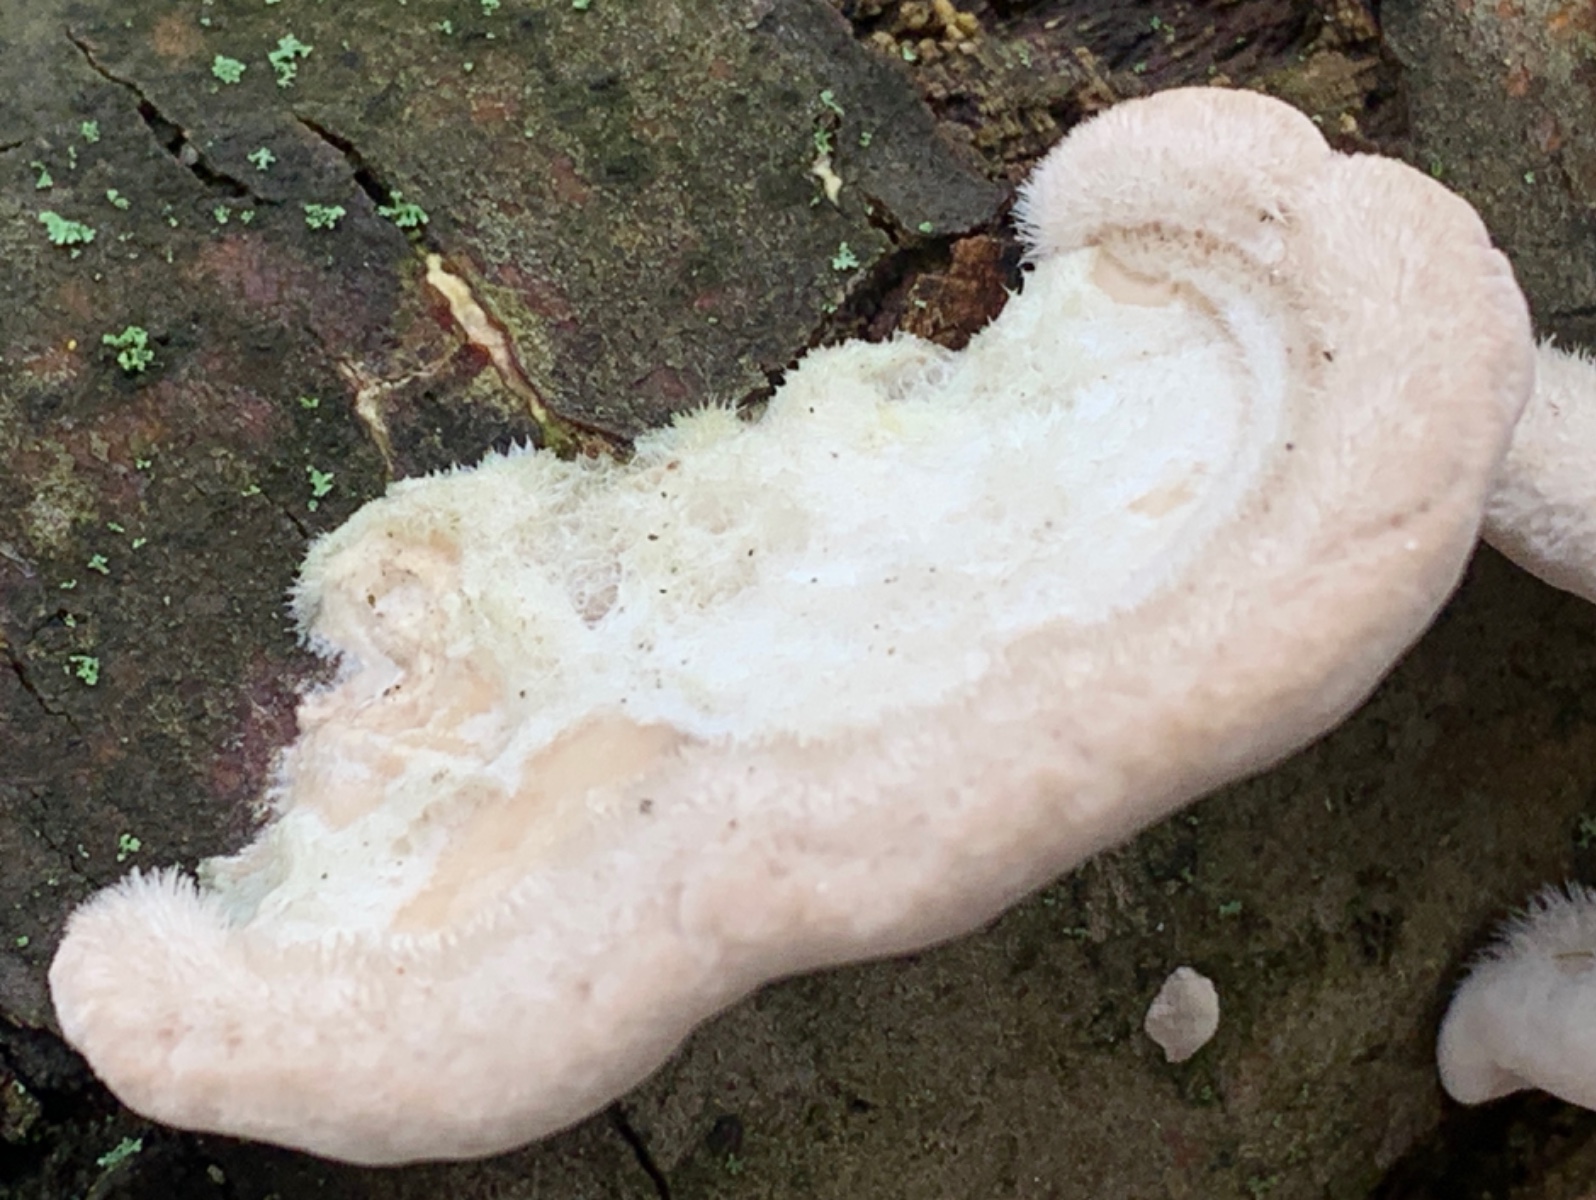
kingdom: Fungi
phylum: Basidiomycota
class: Agaricomycetes
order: Polyporales
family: Polyporaceae
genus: Trametes
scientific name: Trametes hirsuta
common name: håret læderporesvamp
